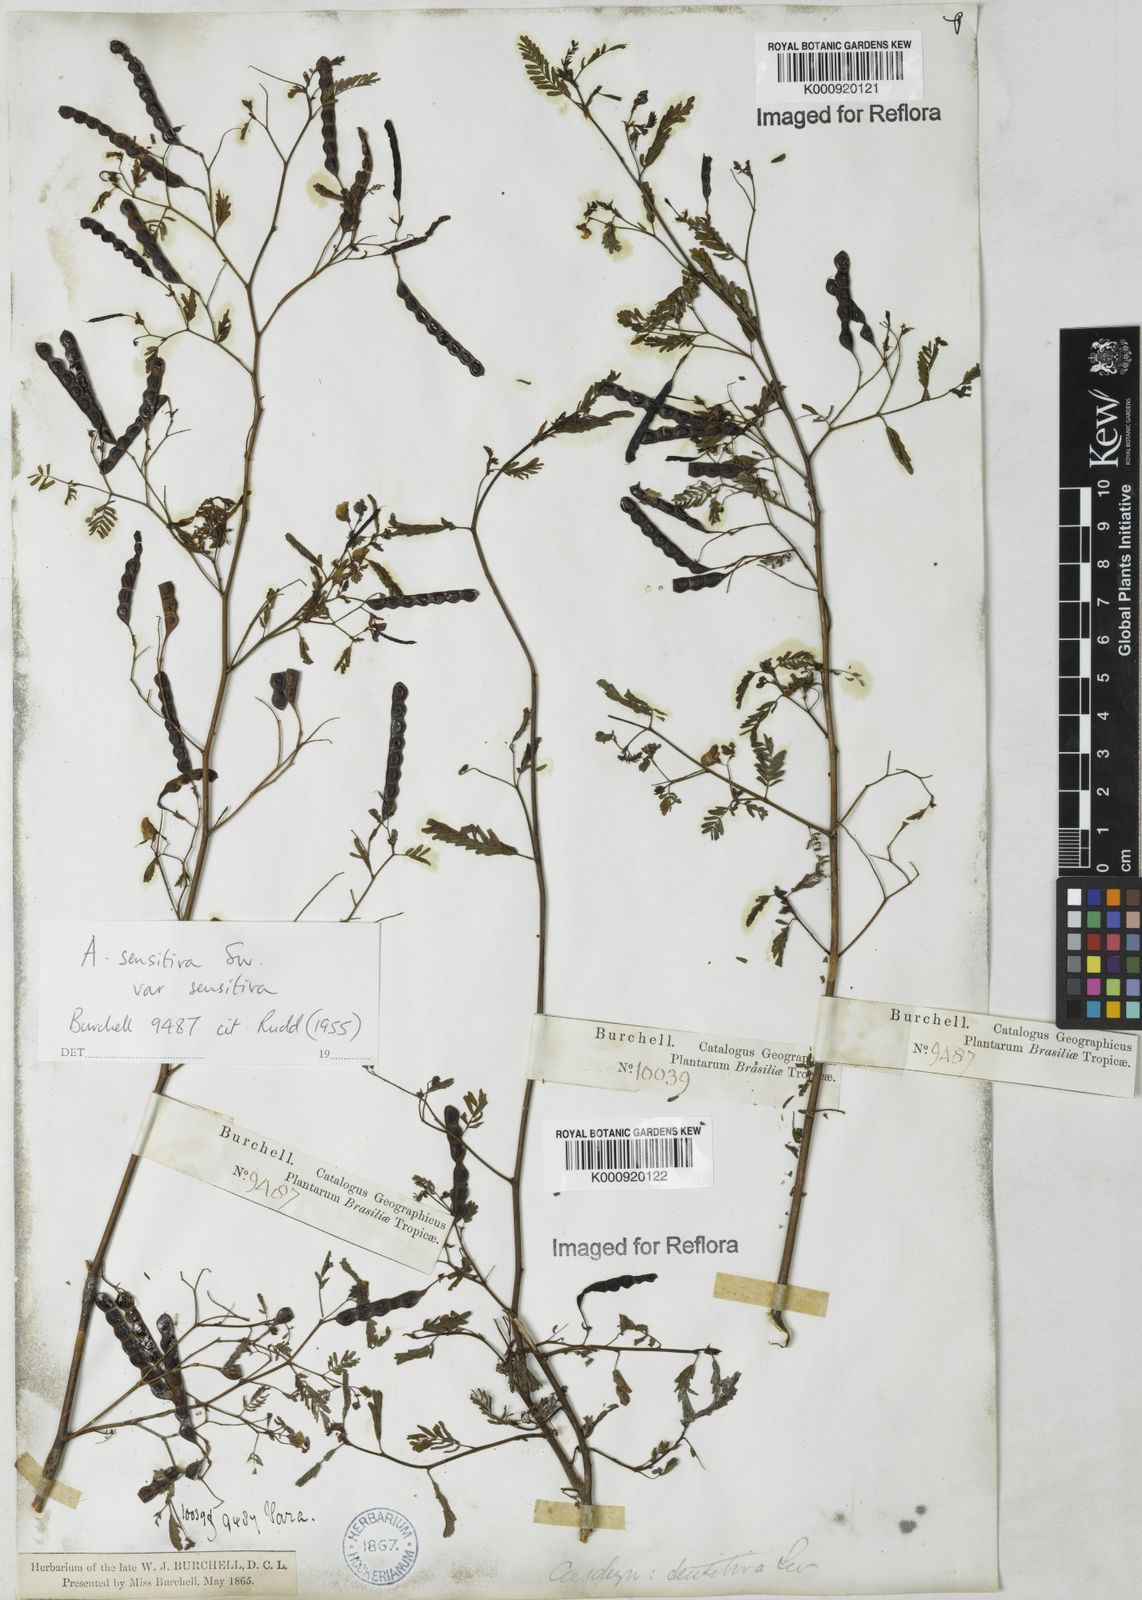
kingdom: Plantae
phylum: Tracheophyta
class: Magnoliopsida
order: Fabales
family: Fabaceae
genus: Aeschynomene
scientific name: Aeschynomene sensitiva
